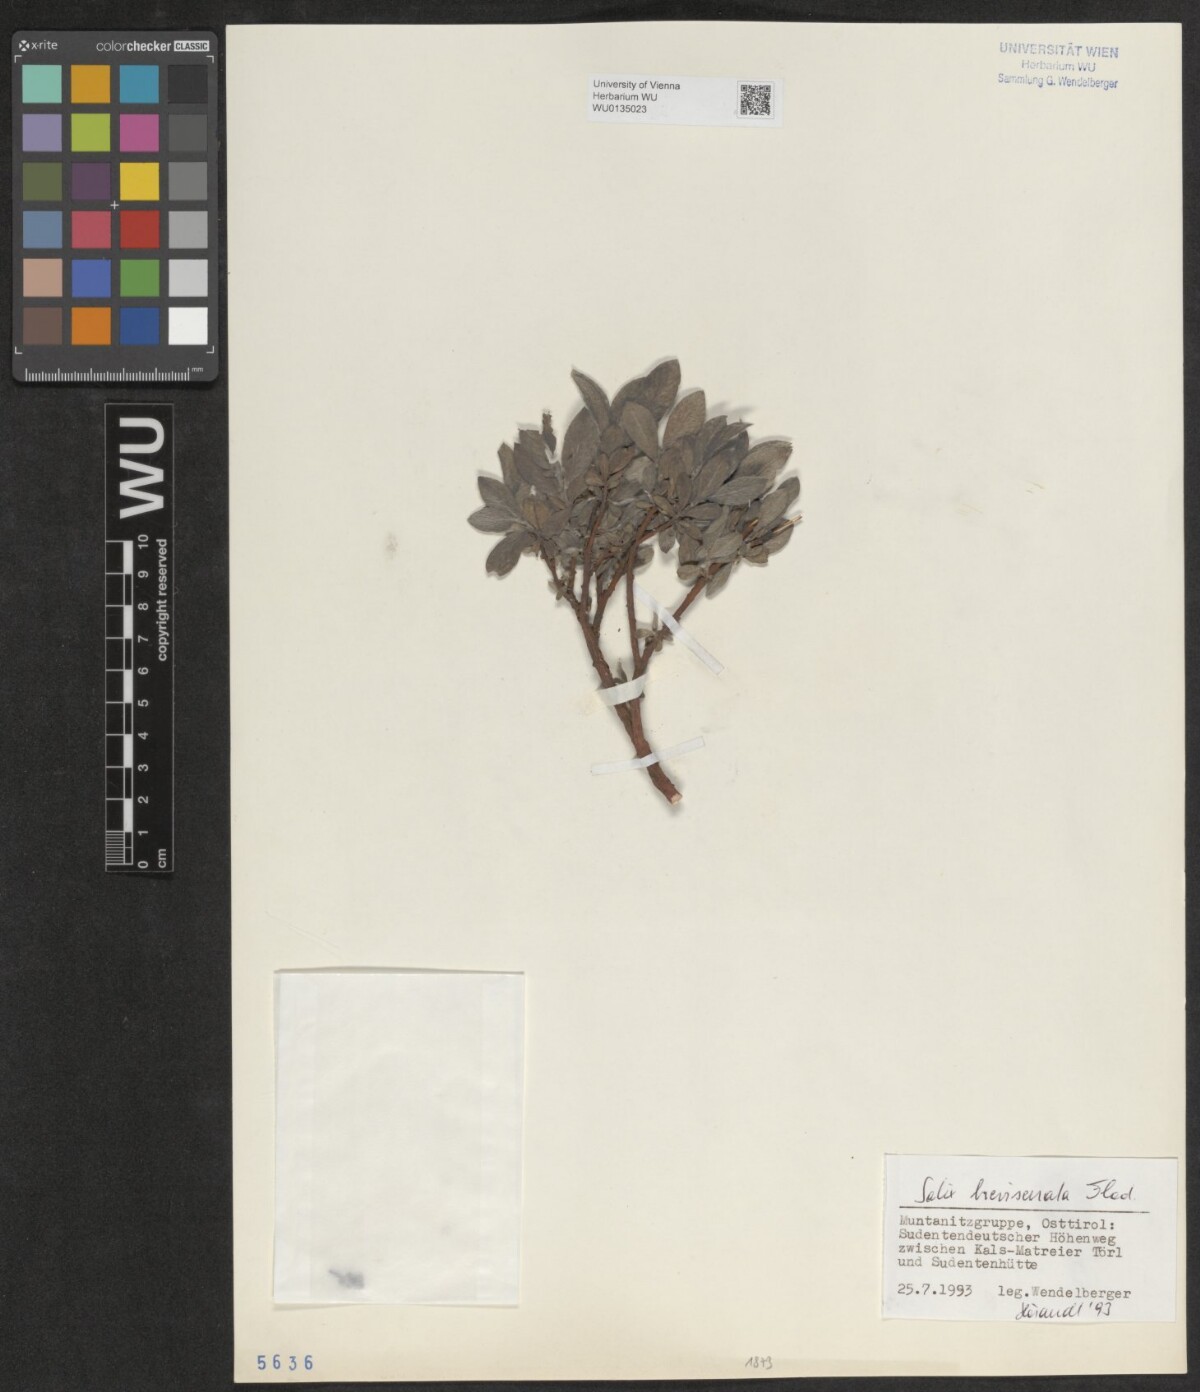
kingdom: Plantae
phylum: Tracheophyta
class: Magnoliopsida
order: Malpighiales
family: Salicaceae
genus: Salix
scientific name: Salix breviserrata
